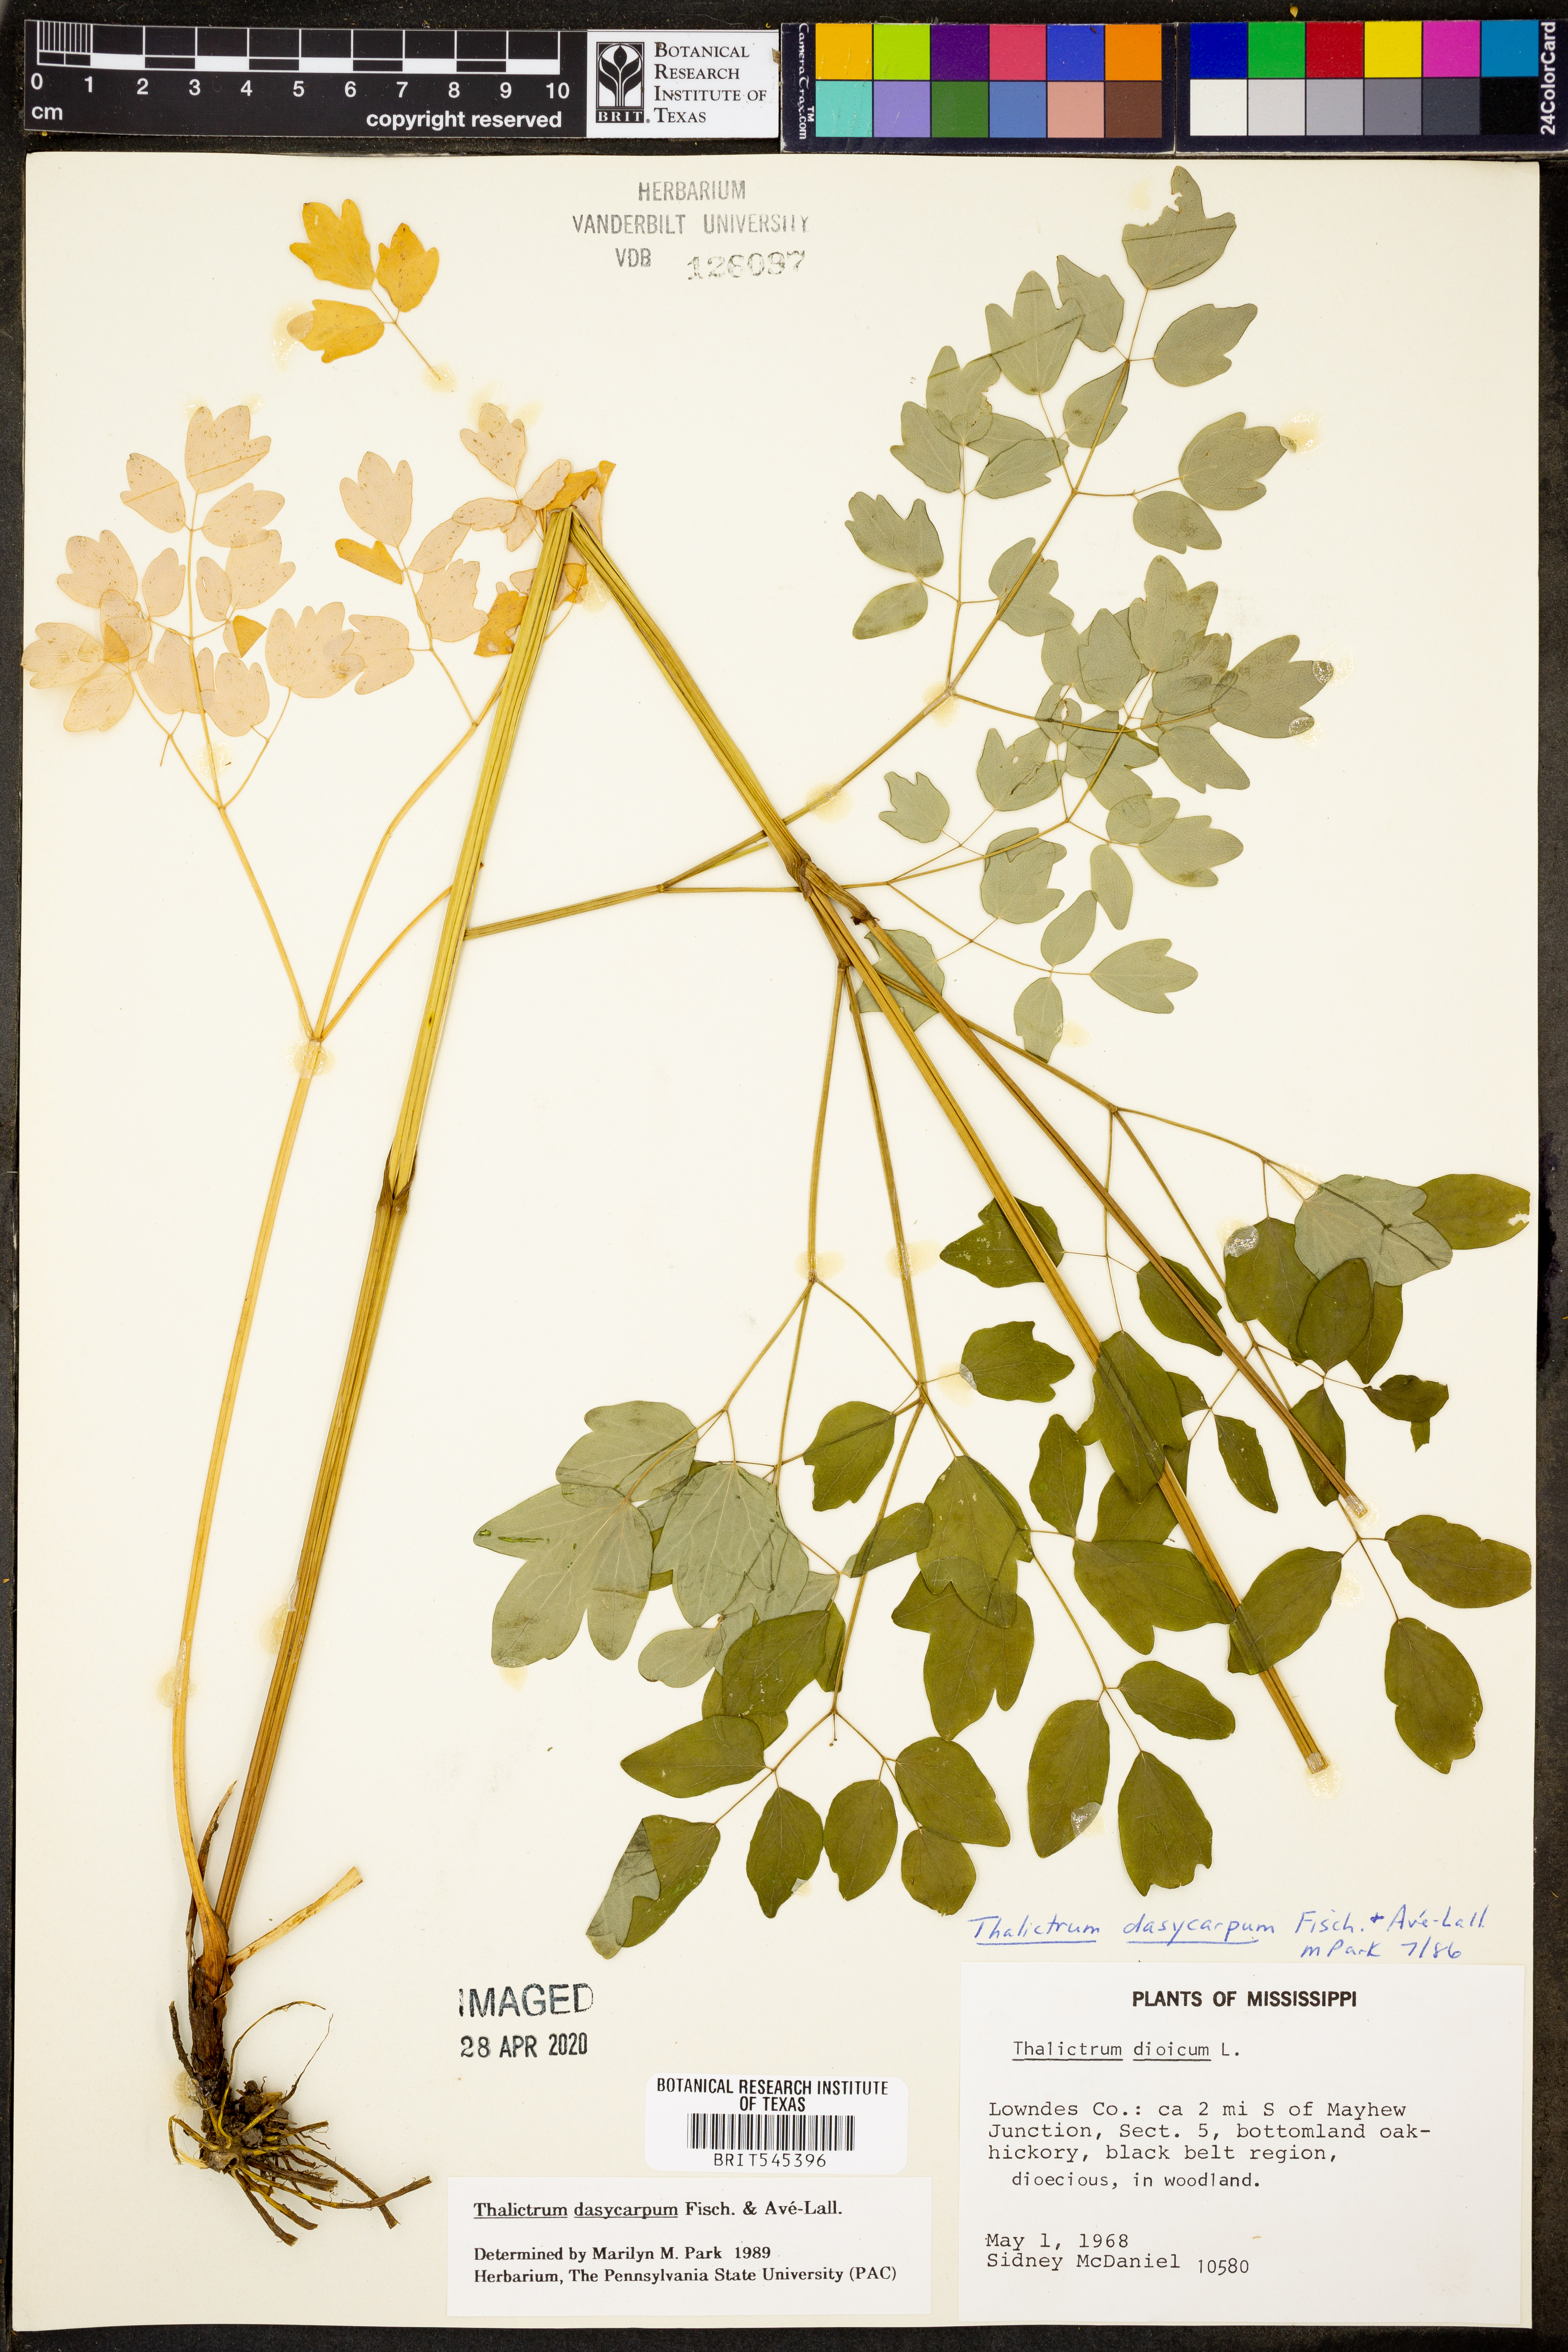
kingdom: Plantae
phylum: Tracheophyta
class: Magnoliopsida
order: Ranunculales
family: Ranunculaceae
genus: Thalictrum
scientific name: Thalictrum dasycarpum
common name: Purple meadow-rue
